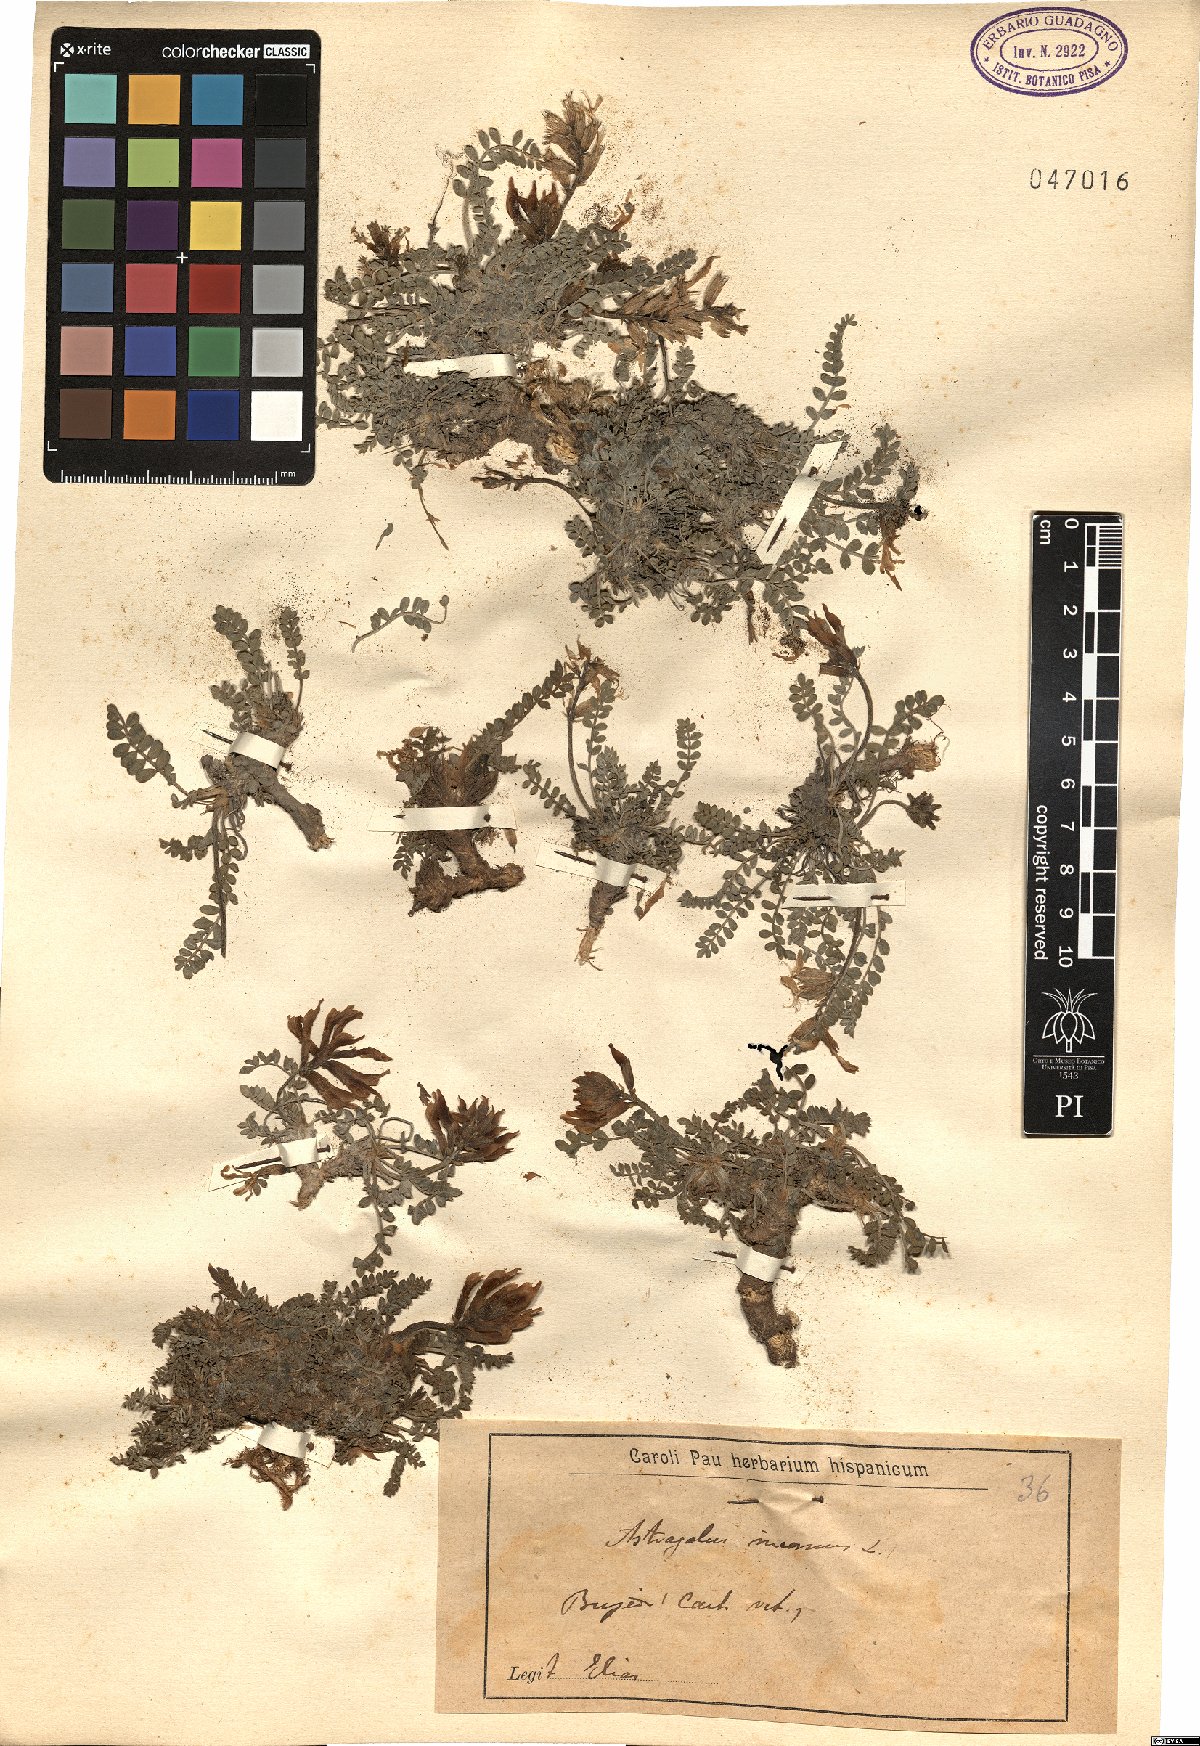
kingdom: Plantae
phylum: Tracheophyta
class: Magnoliopsida
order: Fabales
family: Fabaceae
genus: Astragalus
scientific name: Astragalus incanus
